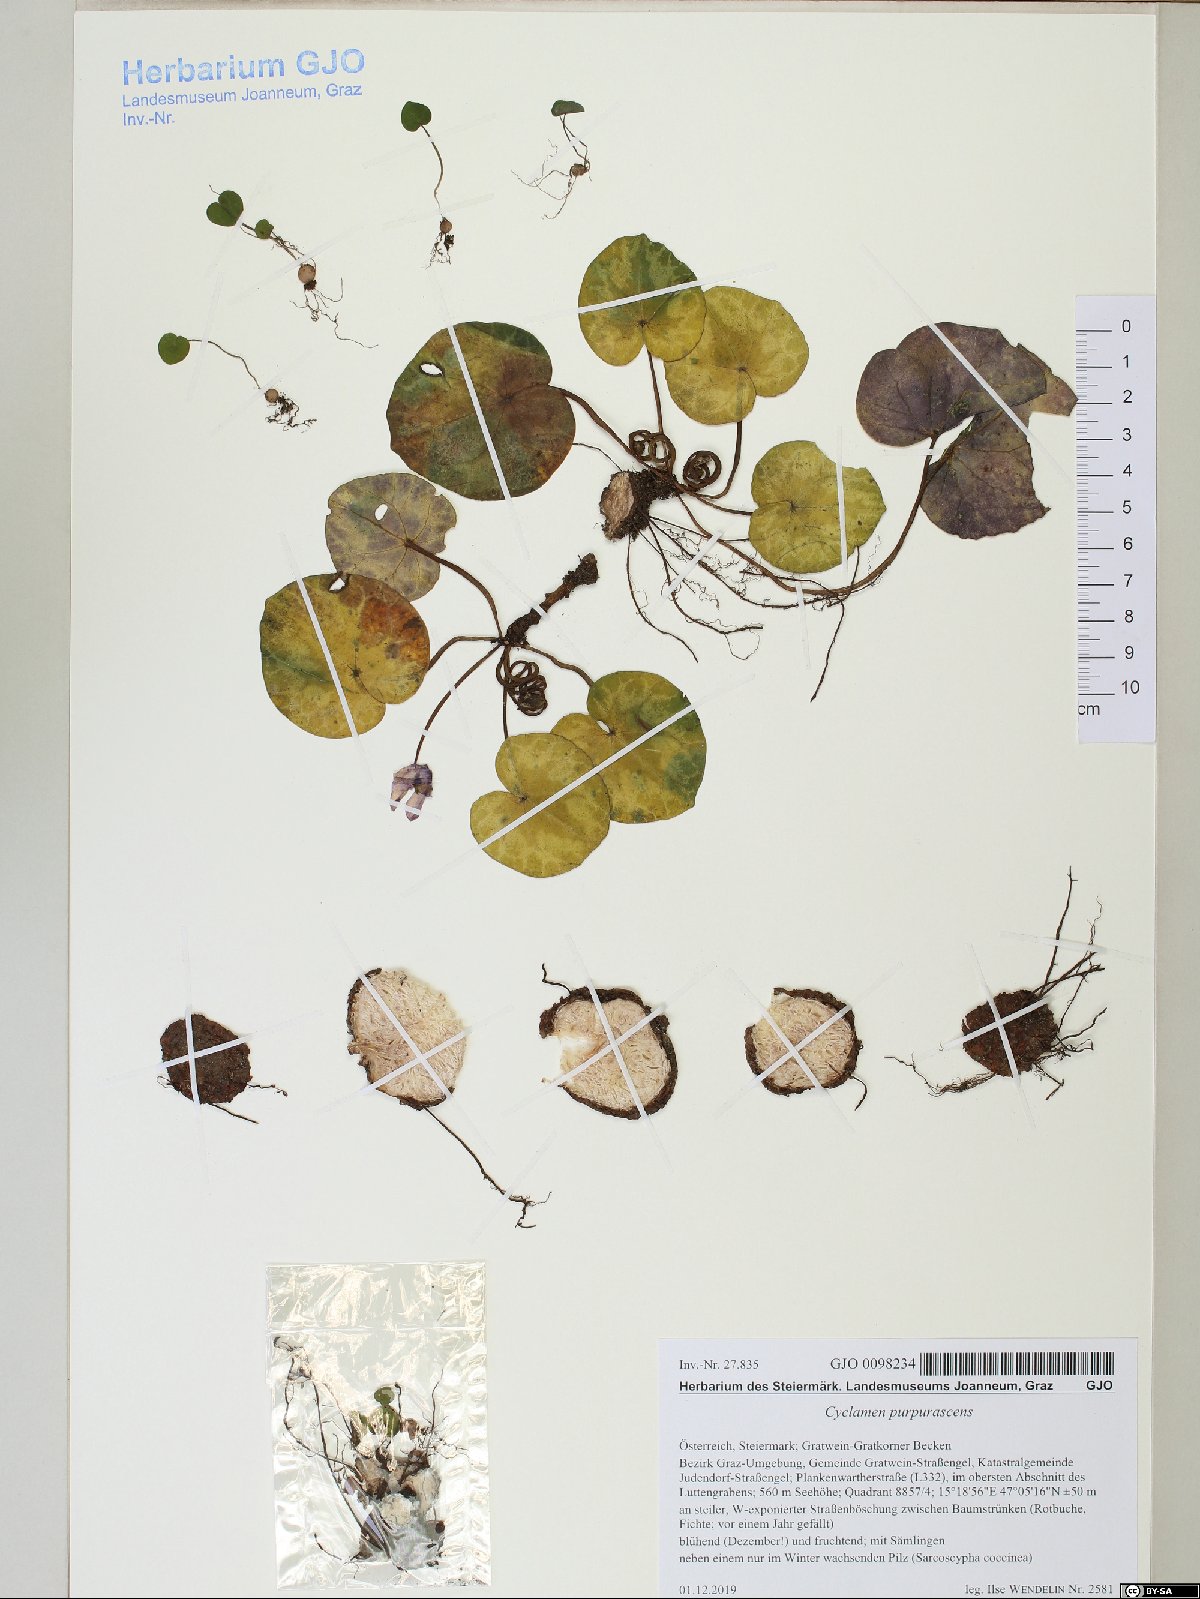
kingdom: Plantae
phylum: Tracheophyta
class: Magnoliopsida
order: Ericales
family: Primulaceae
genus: Cyclamen
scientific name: Cyclamen purpurascens
